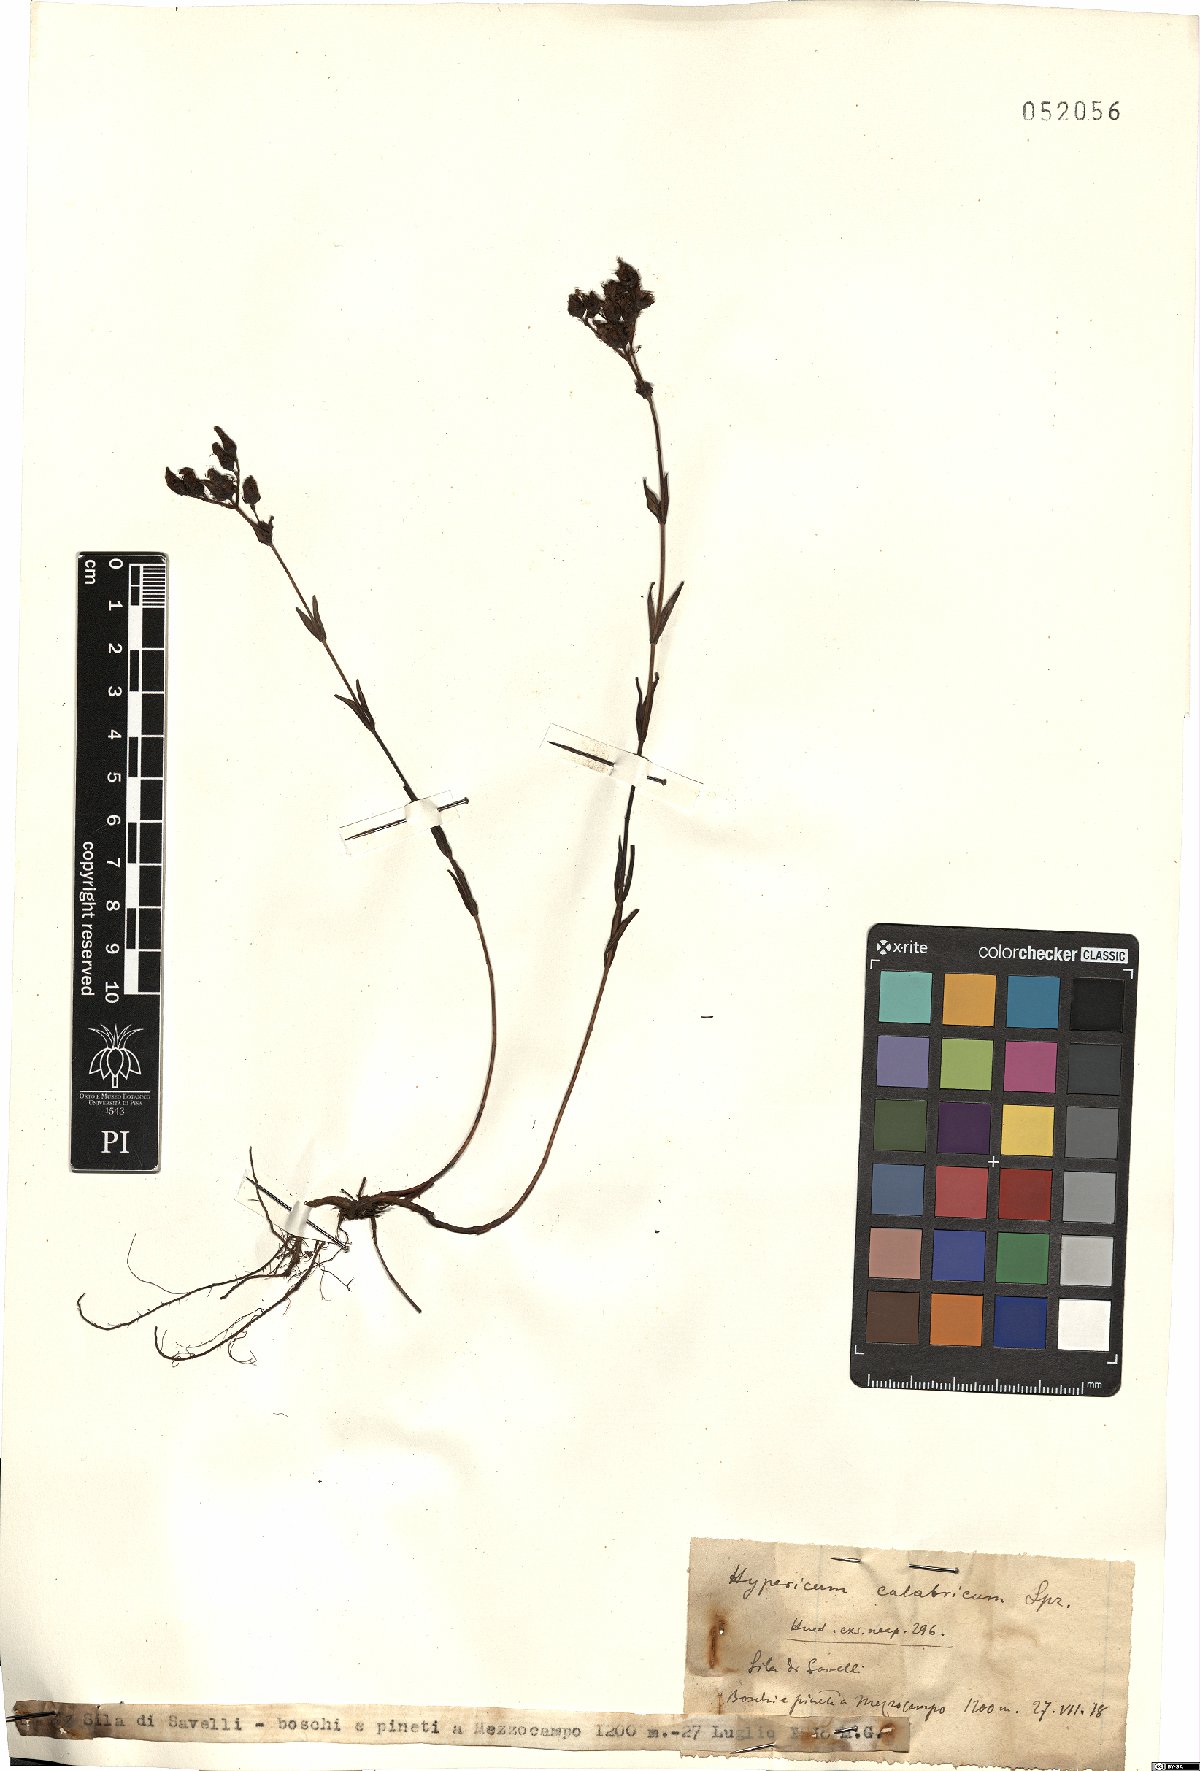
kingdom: Plantae
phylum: Tracheophyta
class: Magnoliopsida
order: Malpighiales
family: Hypericaceae
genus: Hypericum
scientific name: Hypericum barbatum
